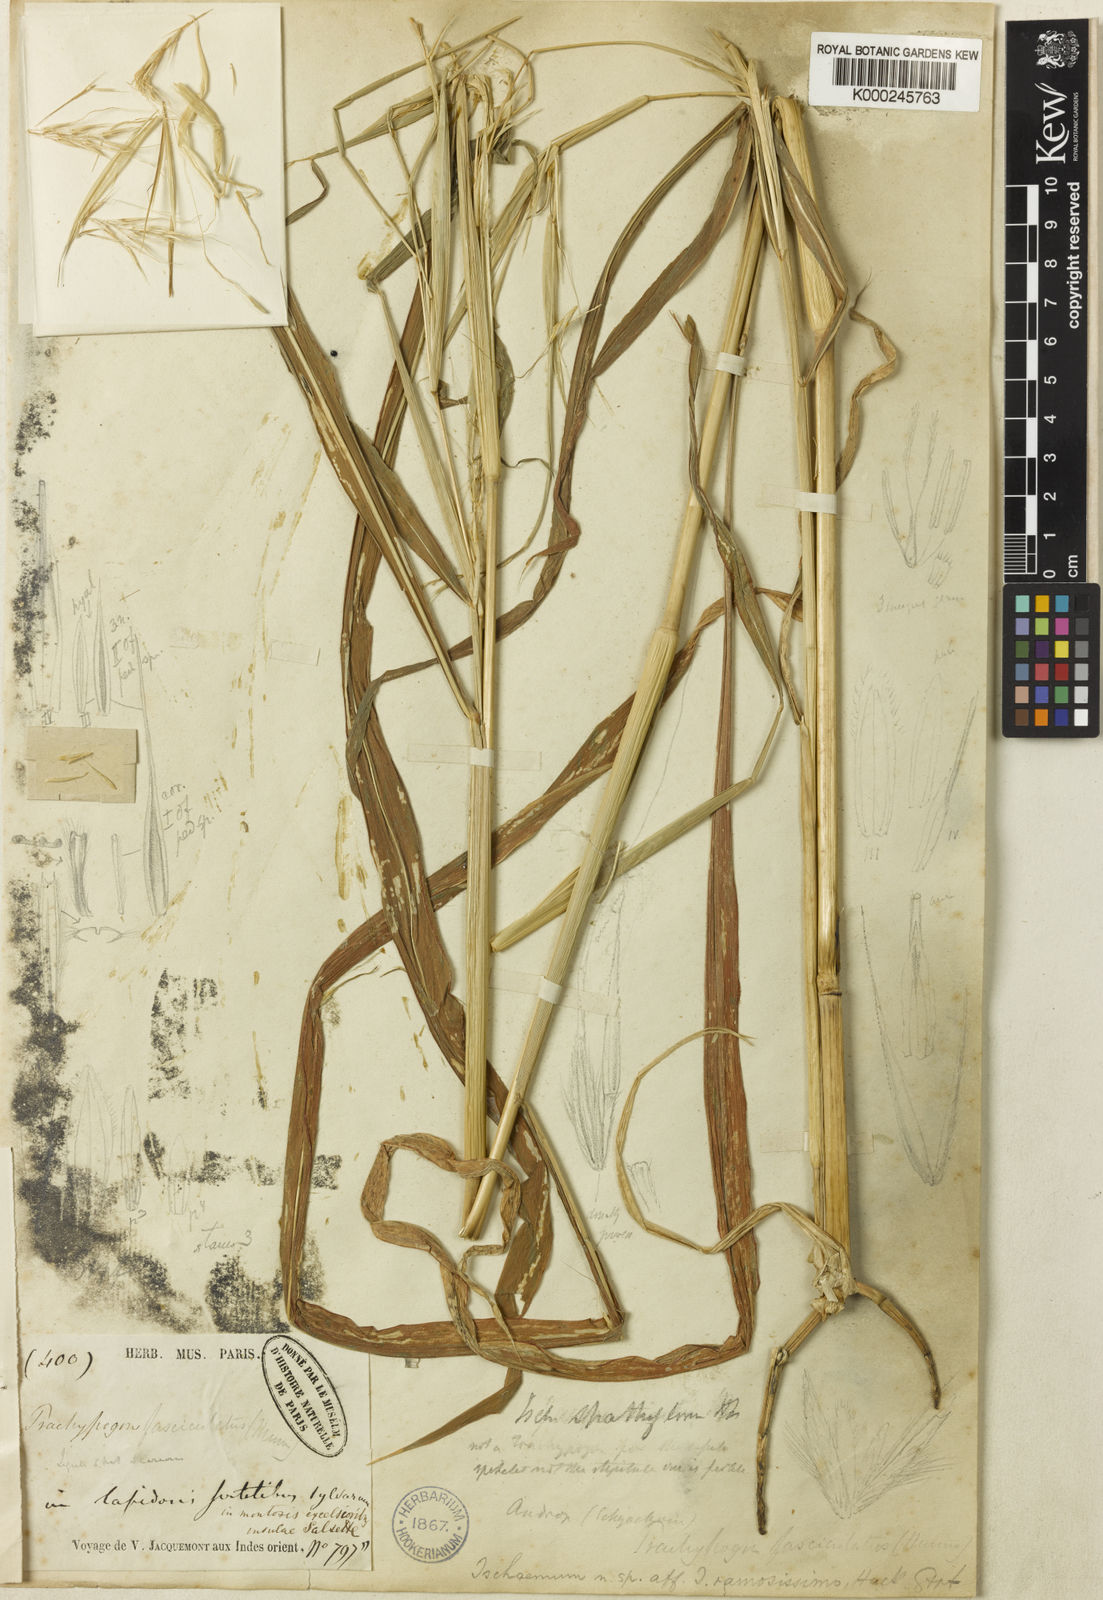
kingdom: Plantae
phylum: Tracheophyta
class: Liliopsida
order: Poales
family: Poaceae
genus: Triplopogon
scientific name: Triplopogon ramosissimus
